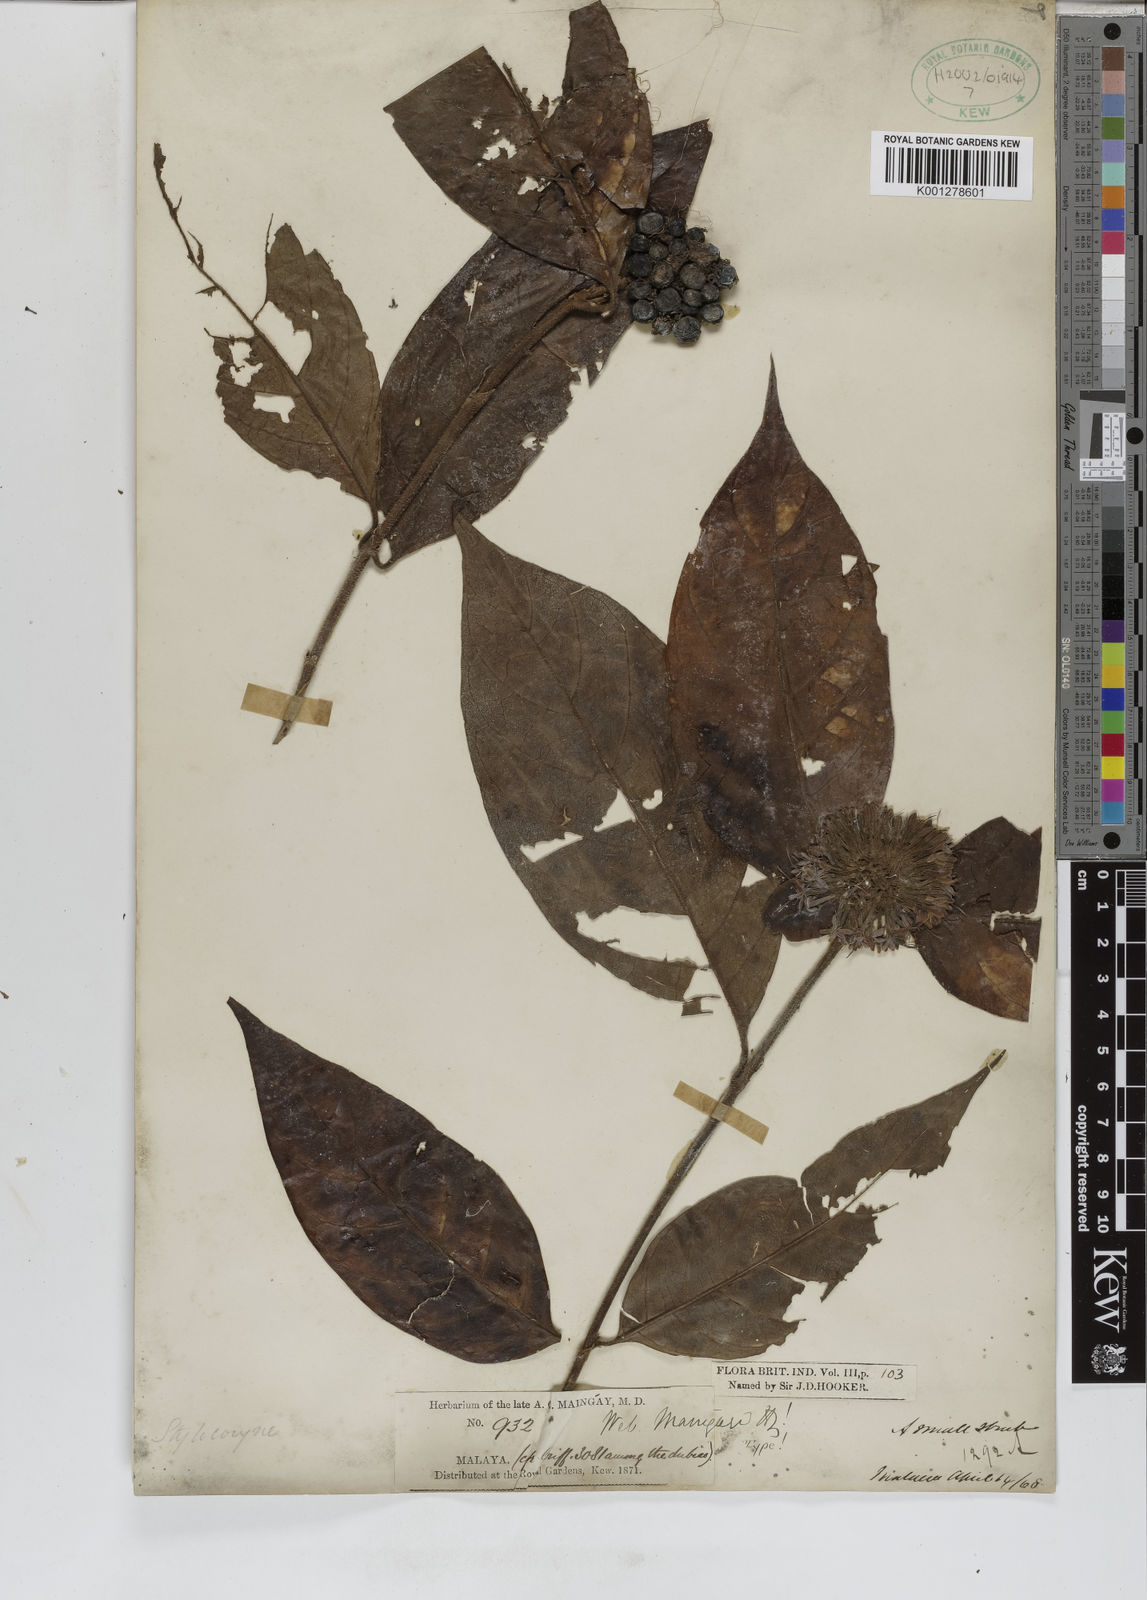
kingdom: Plantae
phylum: Tracheophyta
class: Magnoliopsida
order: Gentianales
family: Rubiaceae
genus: Tarenna
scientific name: Tarenna maingayi
